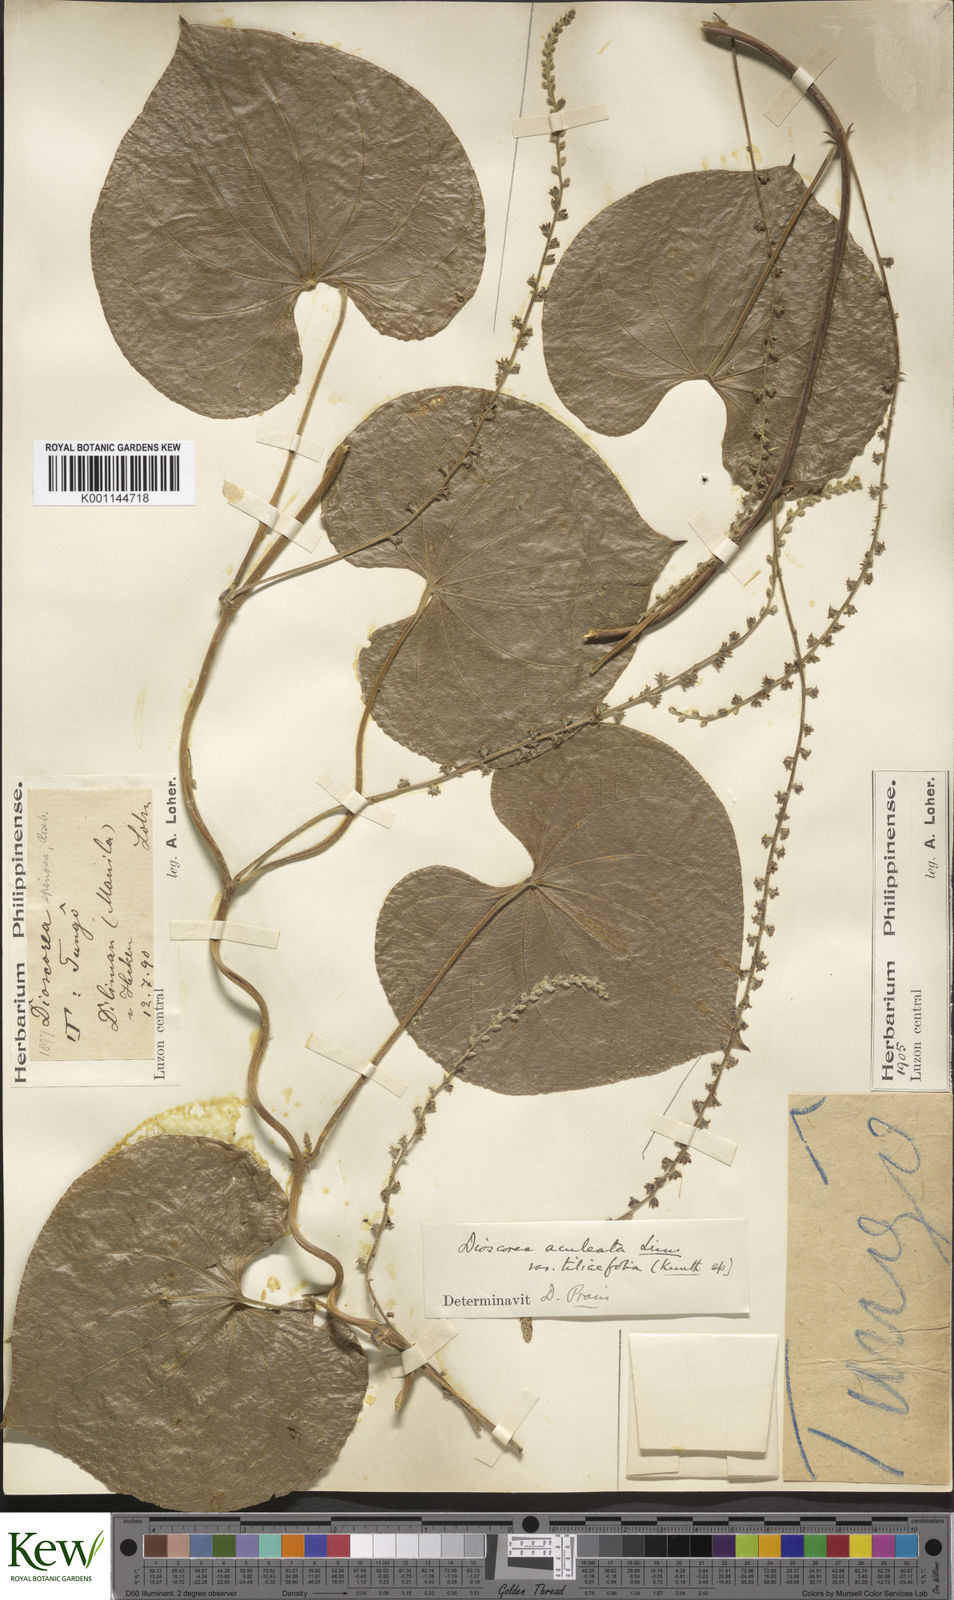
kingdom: Plantae
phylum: Tracheophyta
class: Liliopsida
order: Dioscoreales
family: Dioscoreaceae
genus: Dioscorea
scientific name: Dioscorea esculenta
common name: Chinese yam
